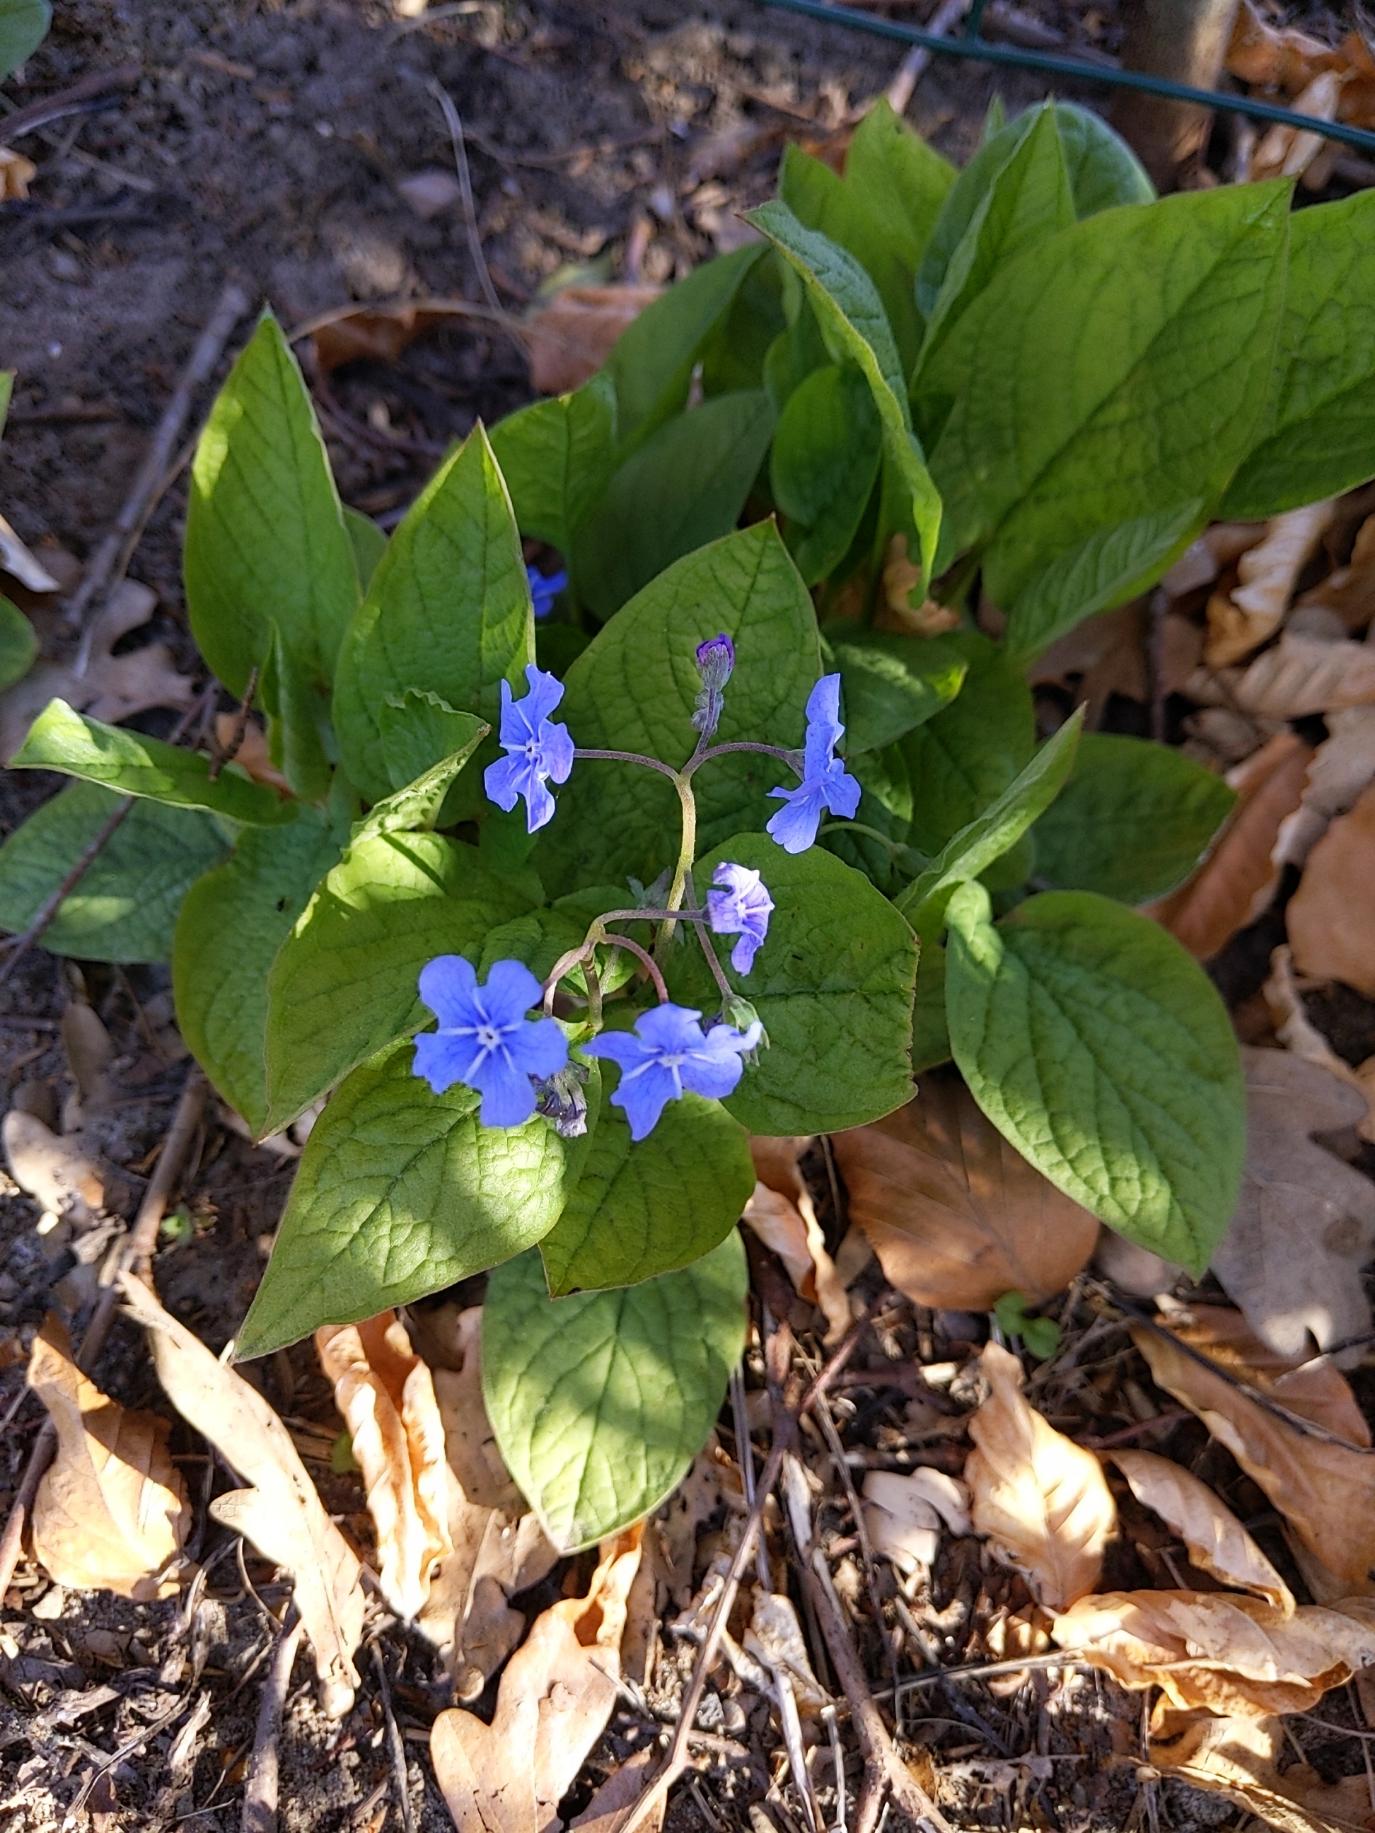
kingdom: Plantae
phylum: Tracheophyta
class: Magnoliopsida
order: Boraginales
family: Boraginaceae
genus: Omphalodes
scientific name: Omphalodes verna
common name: Vår-kærminde
